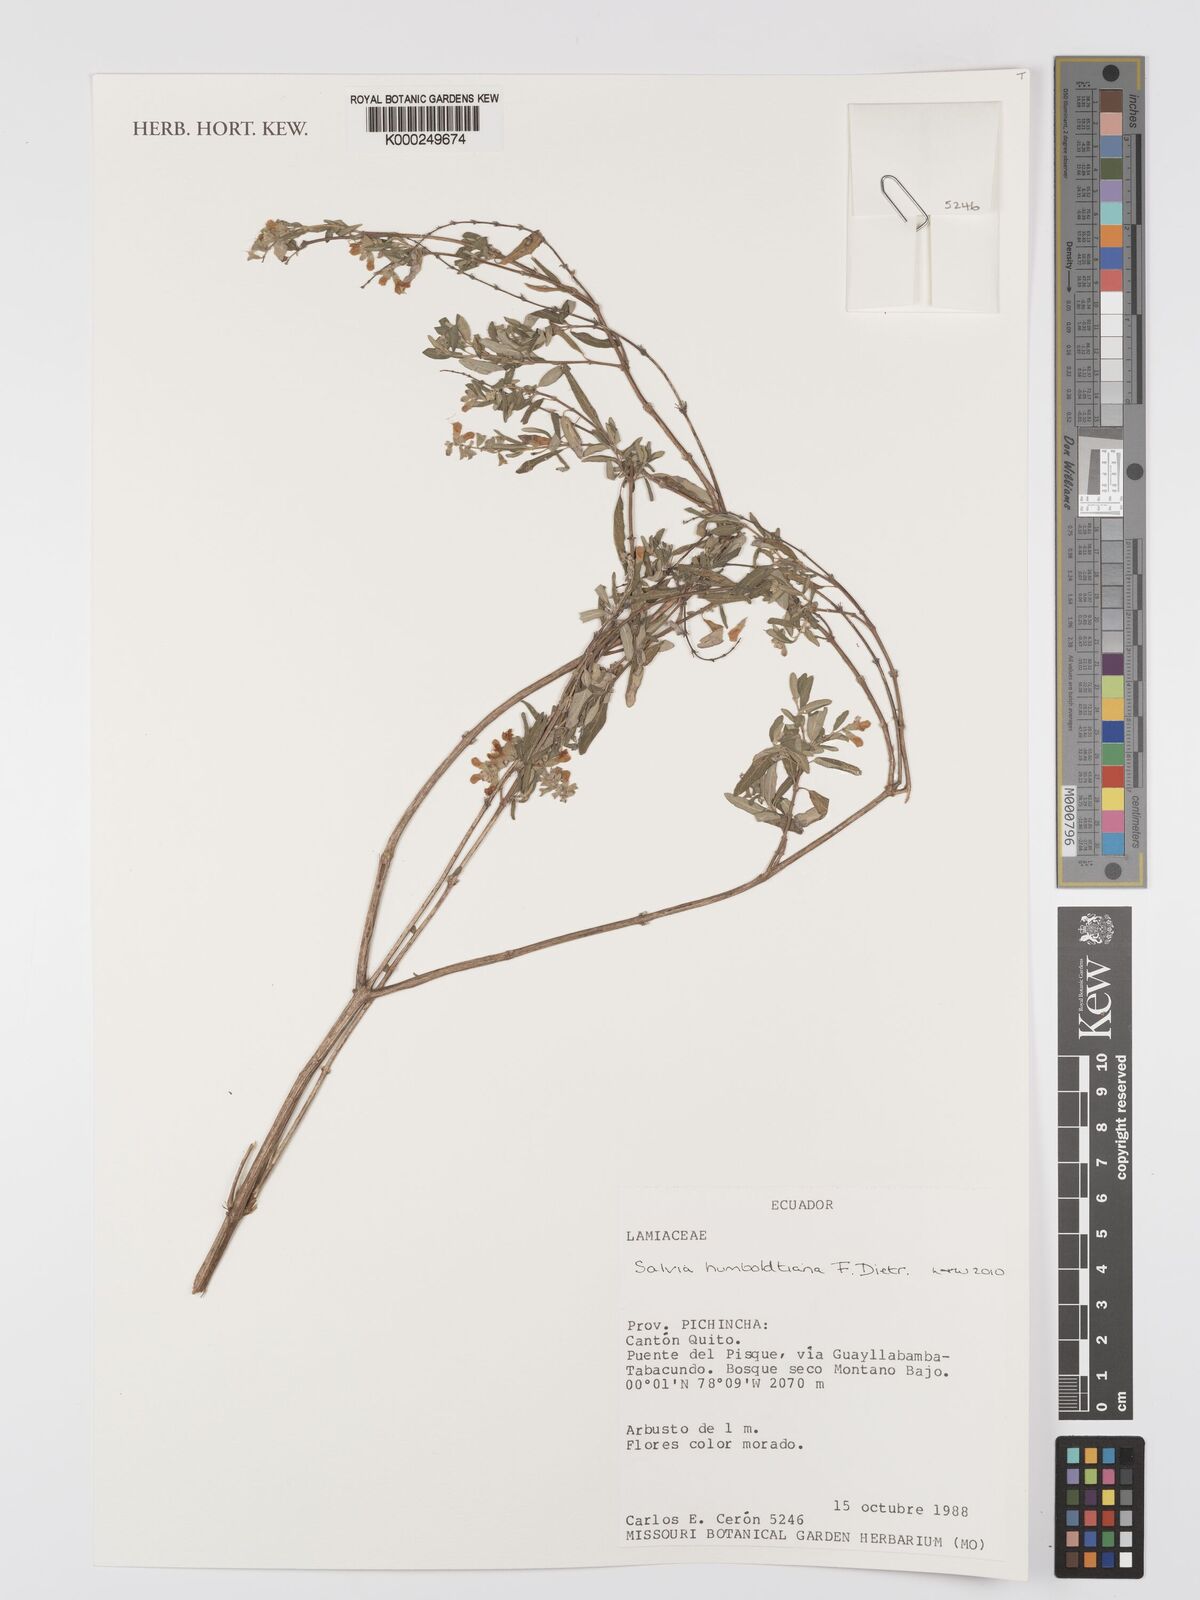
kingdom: Plantae
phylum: Tracheophyta
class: Magnoliopsida
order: Lamiales
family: Lamiaceae
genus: Salvia
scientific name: Salvia humboldtiana
